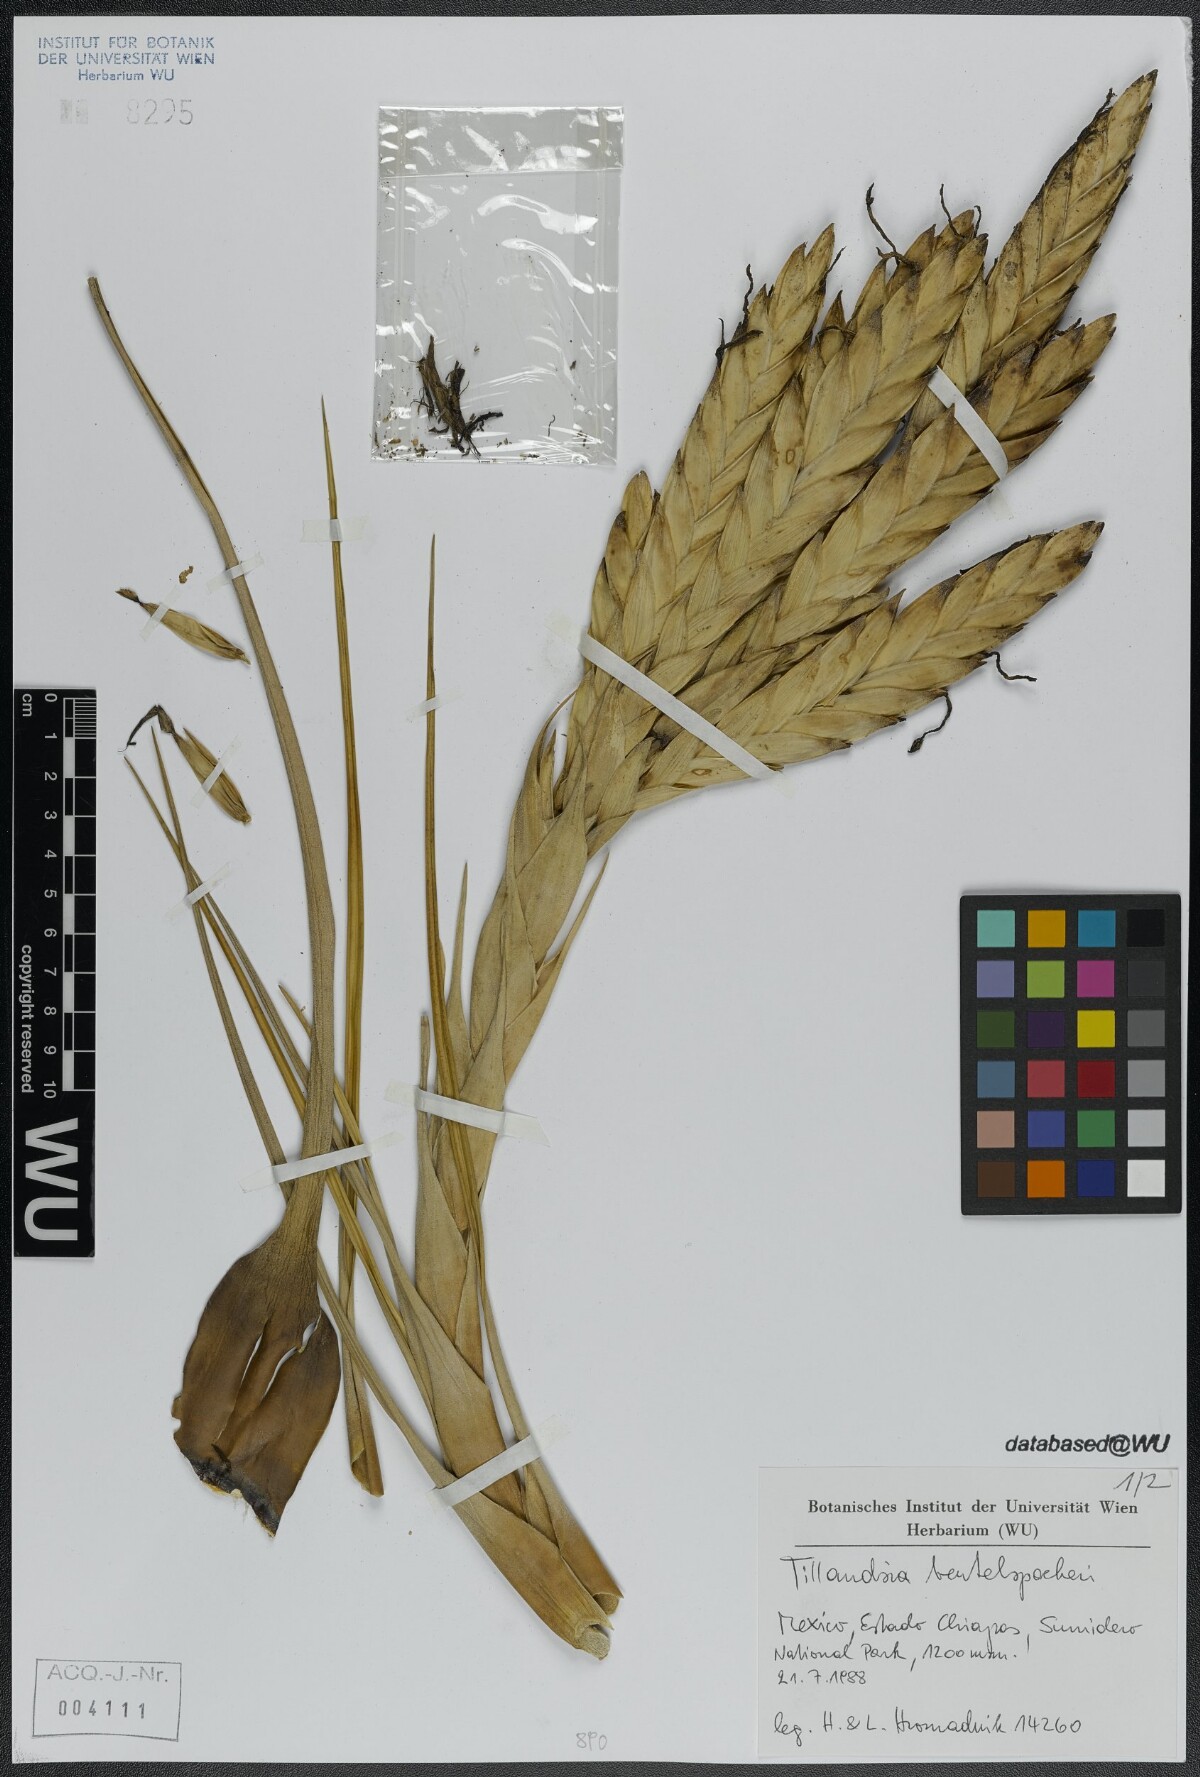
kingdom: Plantae
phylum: Tracheophyta
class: Liliopsida
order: Poales
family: Bromeliaceae
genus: Tillandsia
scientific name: Tillandsia fasciculata
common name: Giant airplant
